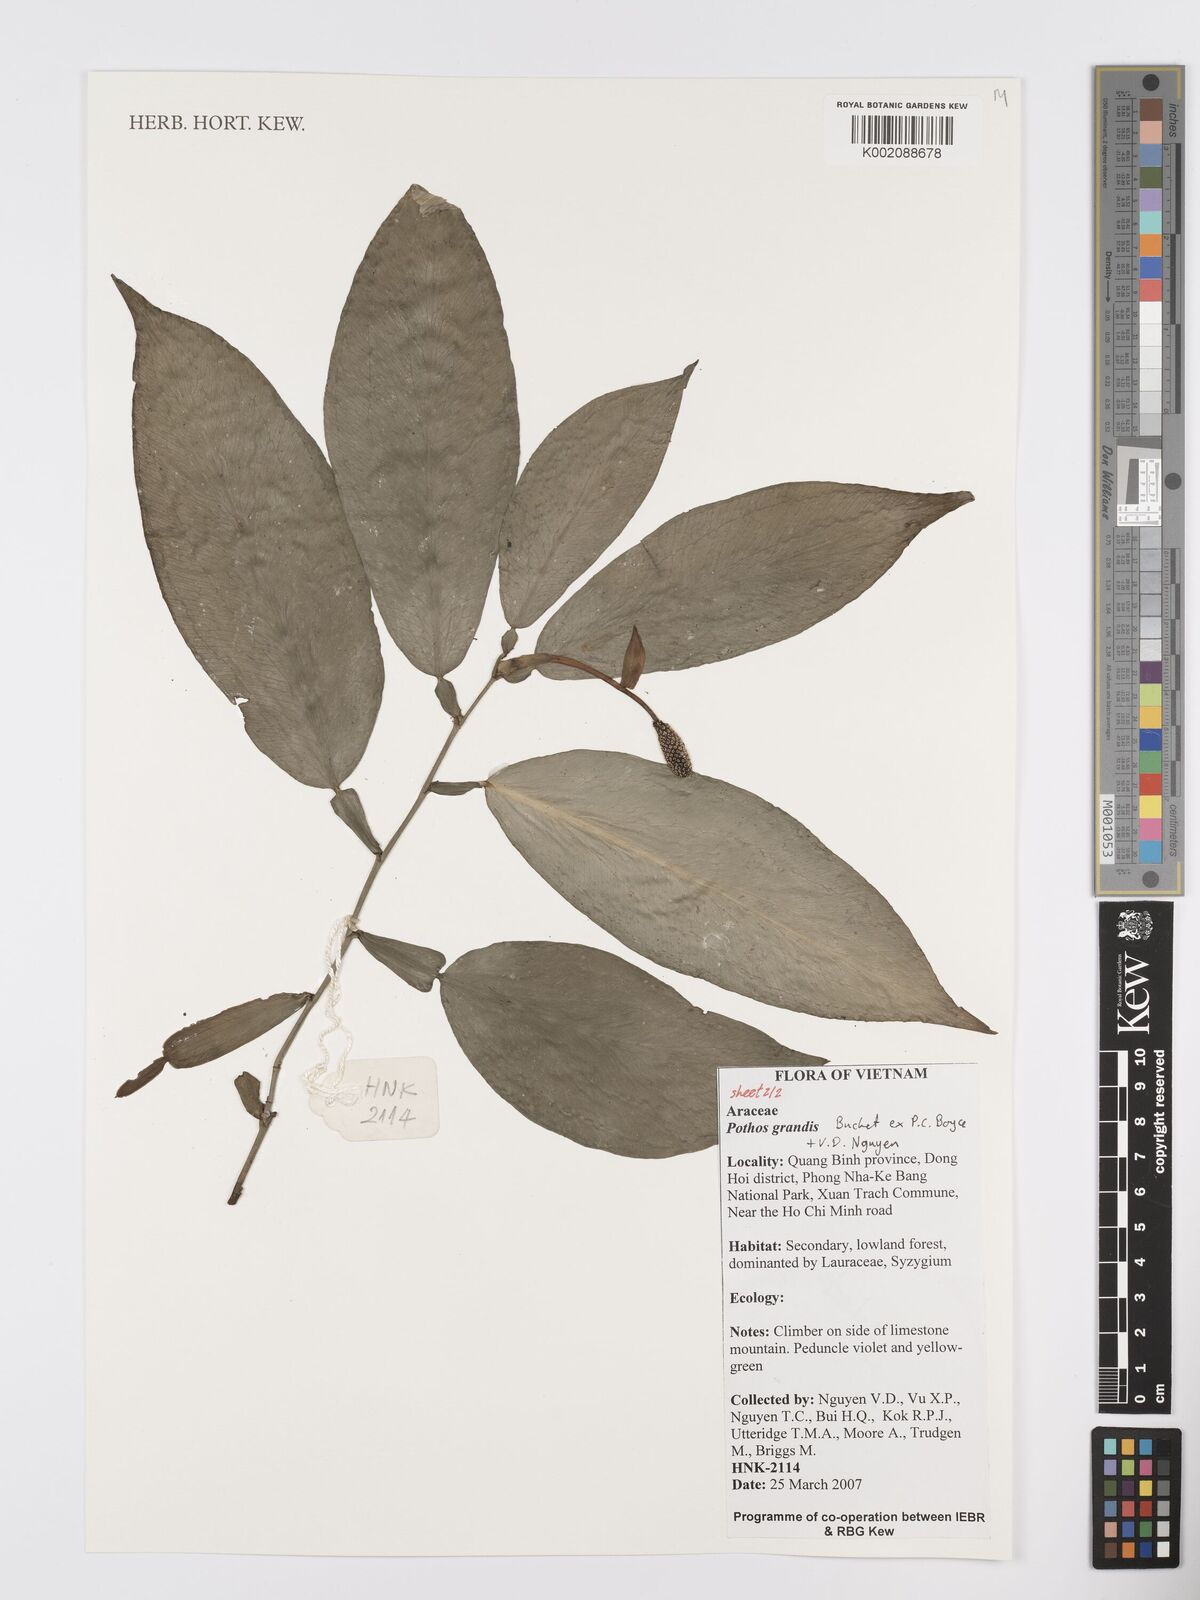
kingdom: Plantae
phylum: Tracheophyta
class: Liliopsida
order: Alismatales
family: Araceae
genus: Pothos
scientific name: Pothos grandis
